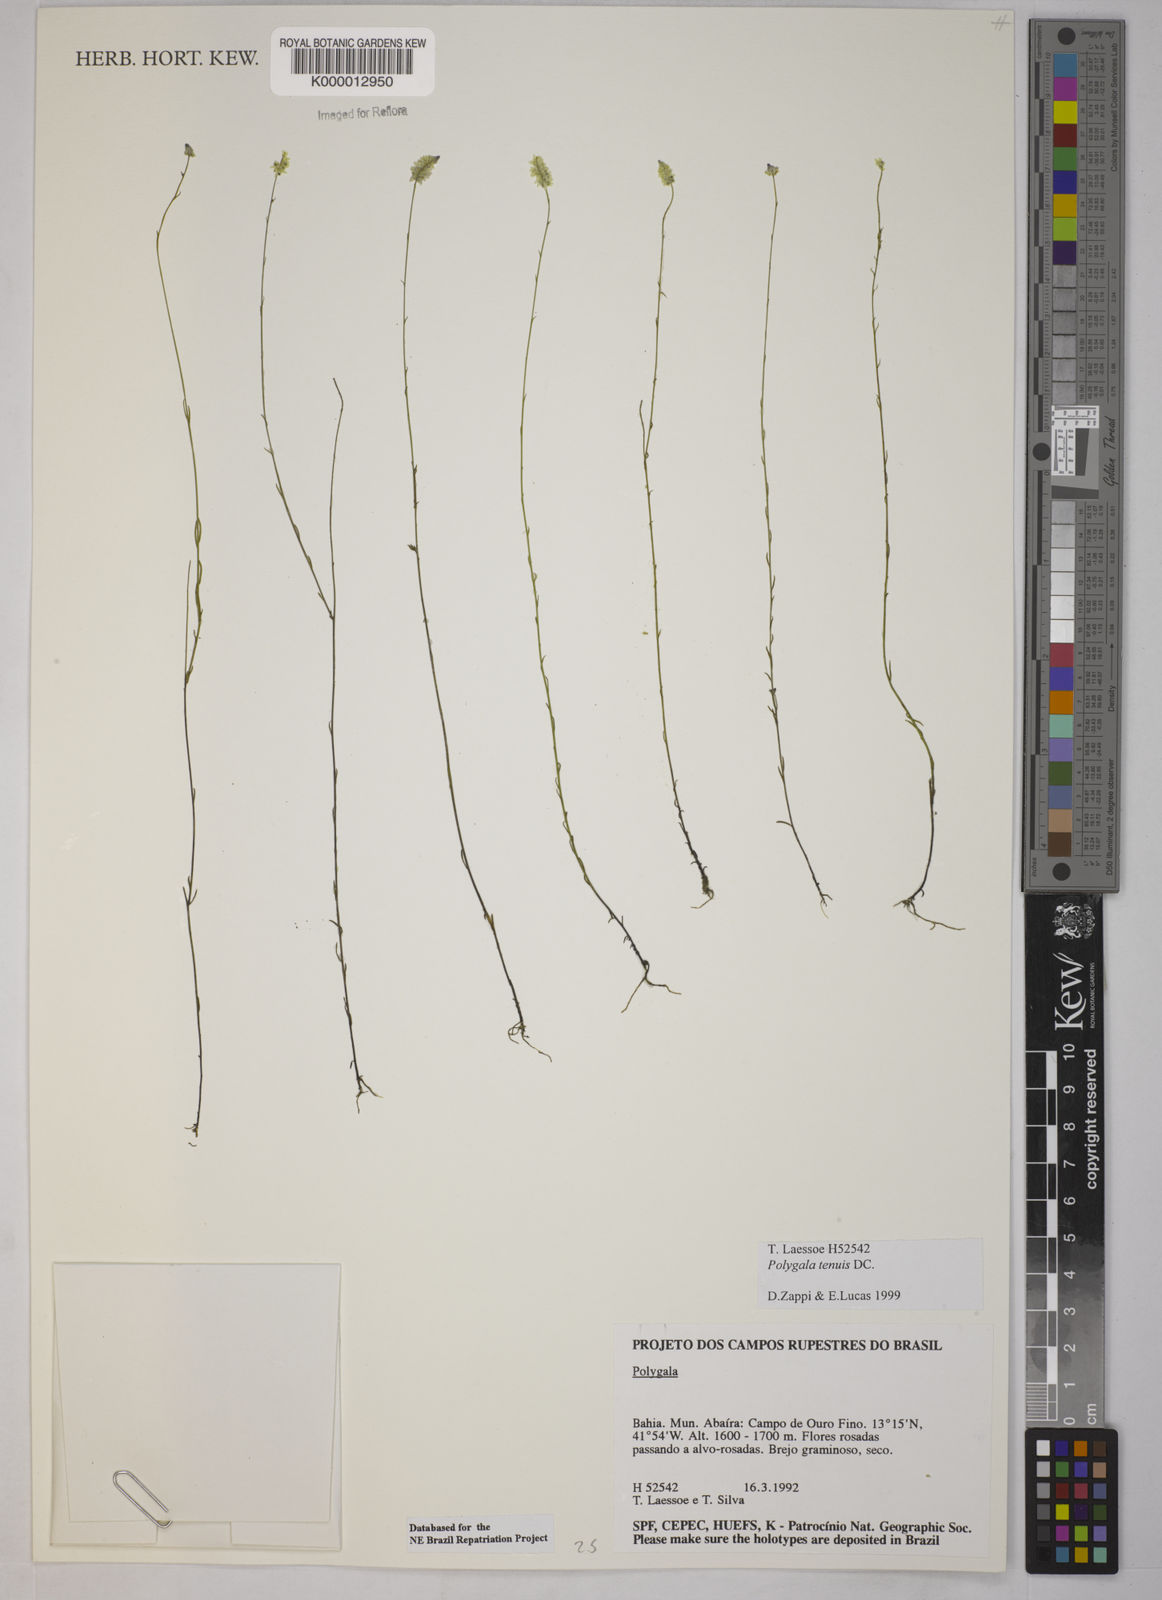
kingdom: Plantae
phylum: Tracheophyta
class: Magnoliopsida
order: Fabales
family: Polygalaceae
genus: Polygala
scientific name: Polygala tenuis
